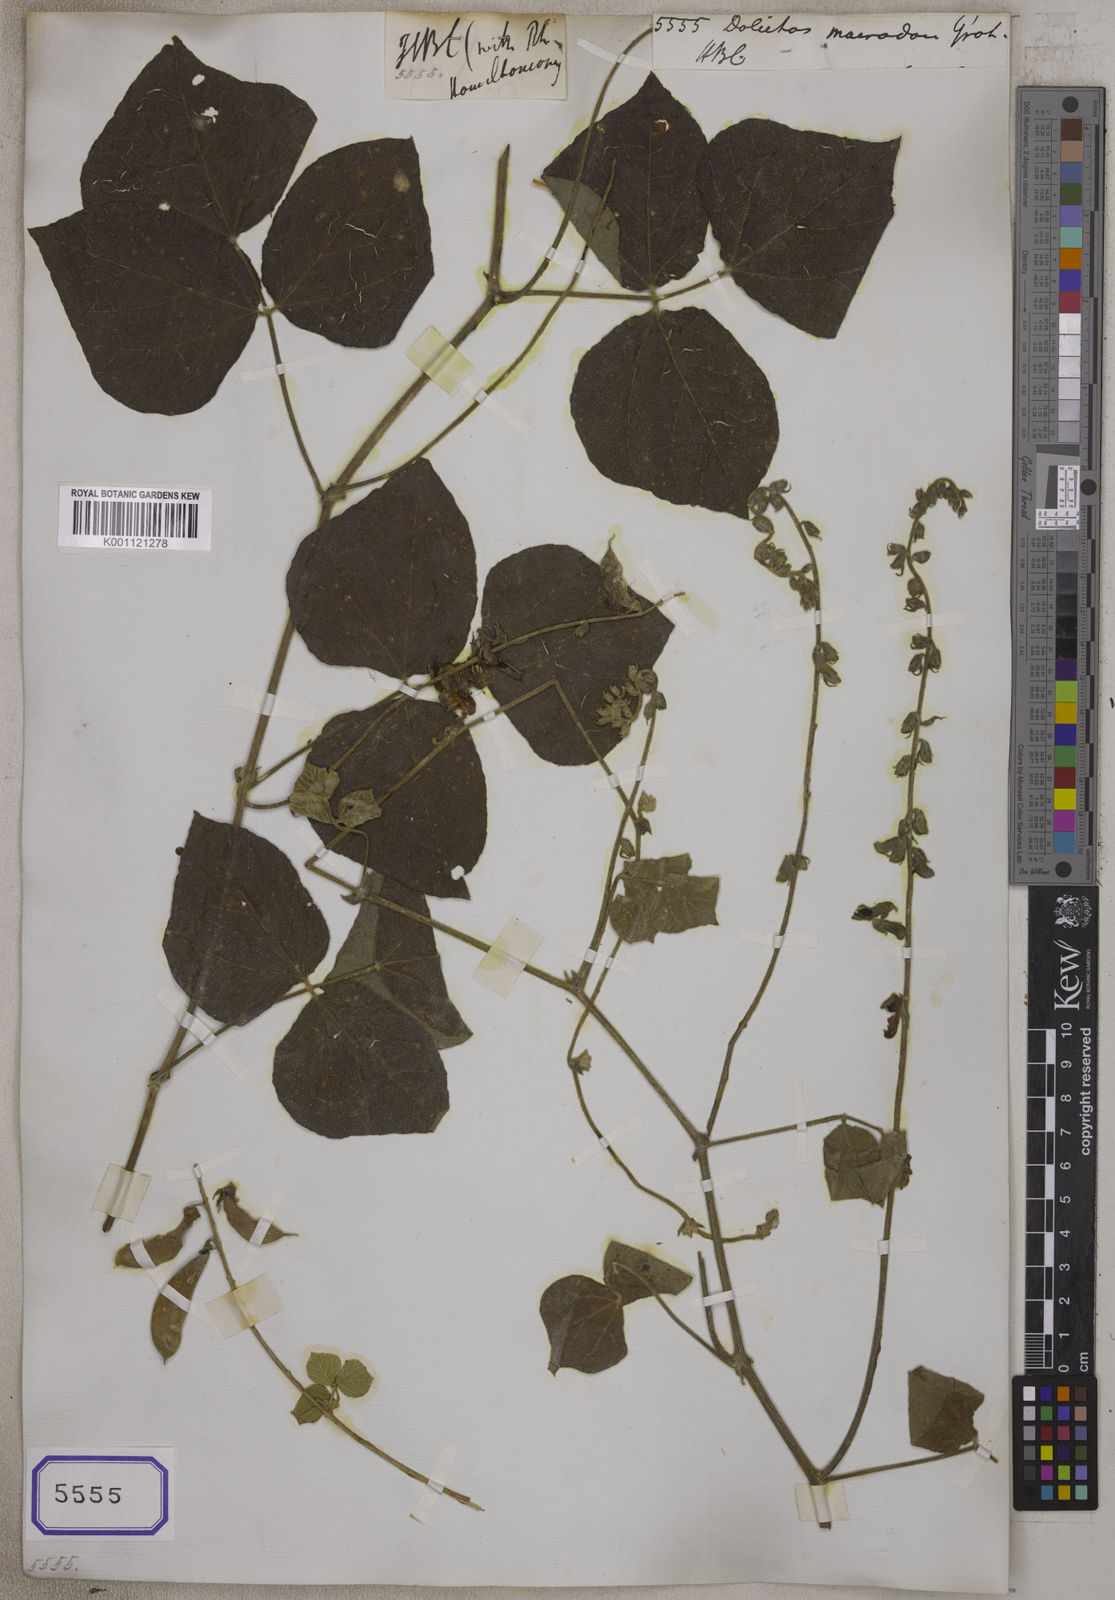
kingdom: Plantae
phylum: Tracheophyta
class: Magnoliopsida
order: Fabales
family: Fabaceae
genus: Rhynchosia
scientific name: Rhynchosia rothii
